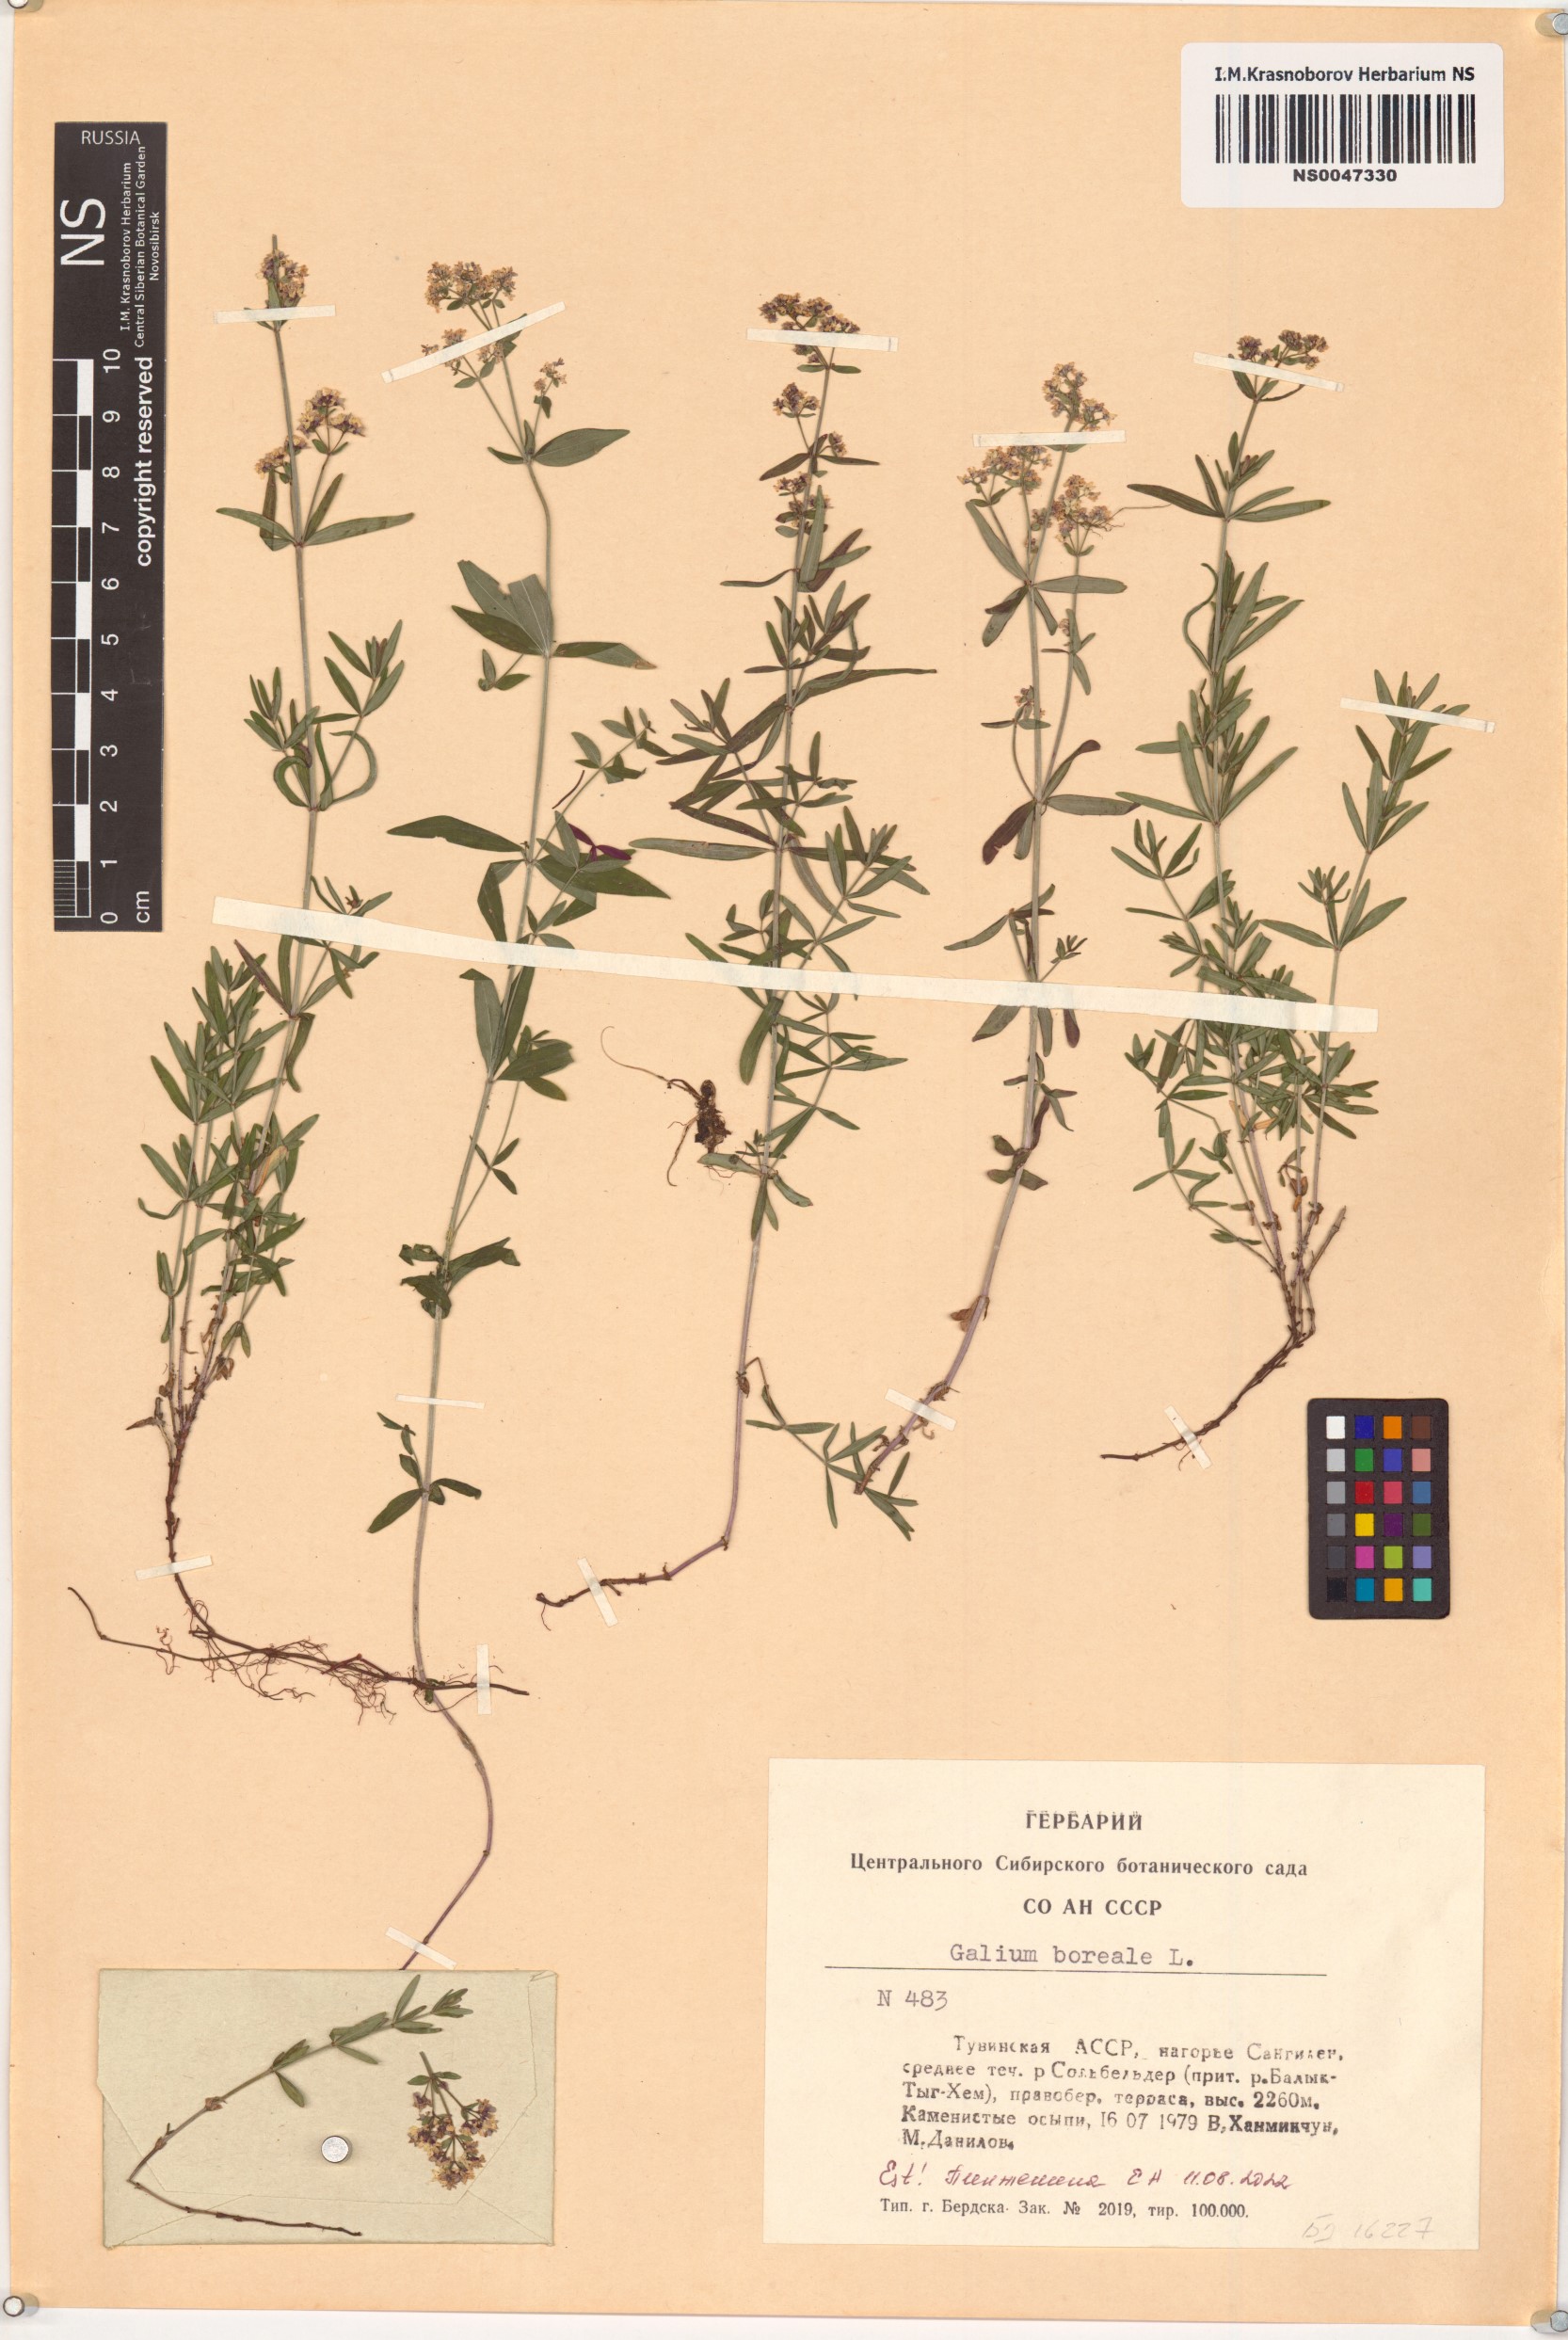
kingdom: Plantae
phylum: Tracheophyta
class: Magnoliopsida
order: Gentianales
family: Rubiaceae
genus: Galium
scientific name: Galium boreale
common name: Northern bedstraw
